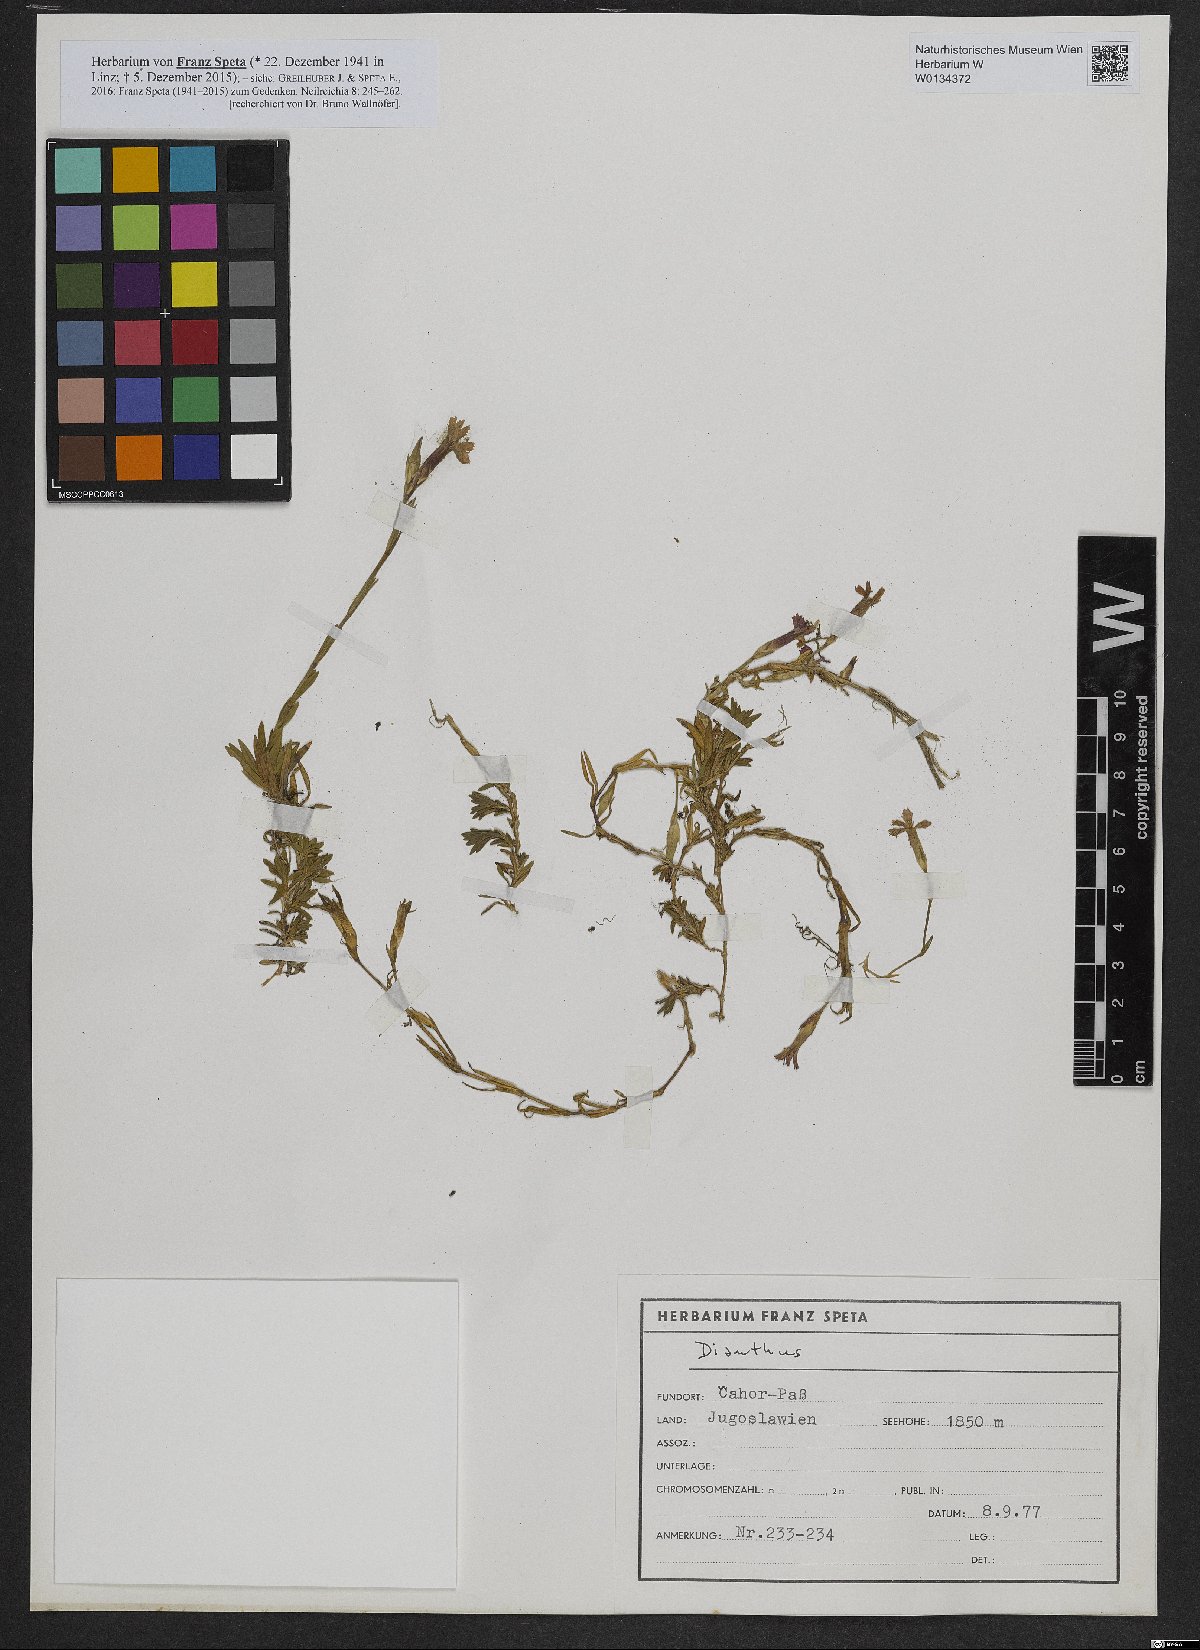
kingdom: Plantae
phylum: Tracheophyta
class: Magnoliopsida
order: Caryophyllales
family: Caryophyllaceae
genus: Dianthus
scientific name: Dianthus
